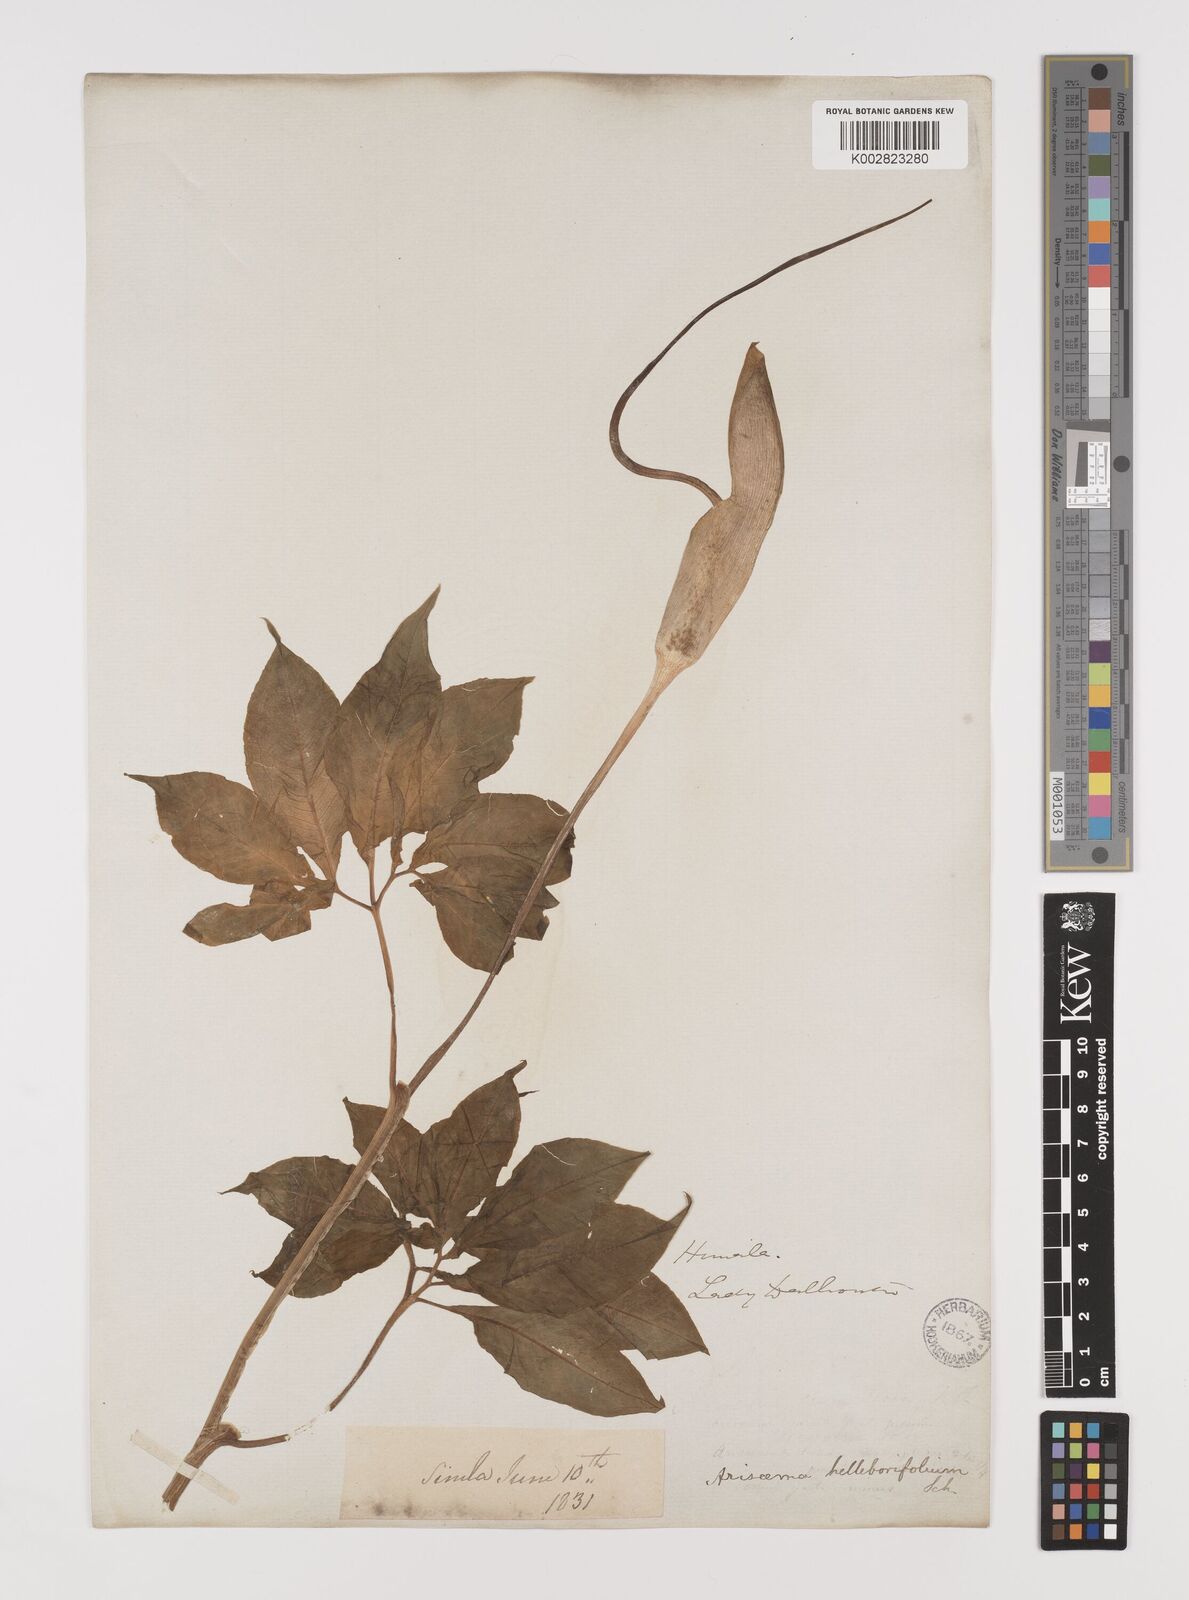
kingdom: Plantae
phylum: Tracheophyta
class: Liliopsida
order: Alismatales
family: Araceae
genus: Arisaema
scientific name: Arisaema tortuosum
